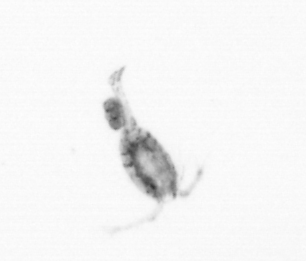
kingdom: Animalia
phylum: Arthropoda
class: Copepoda
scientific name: Copepoda
